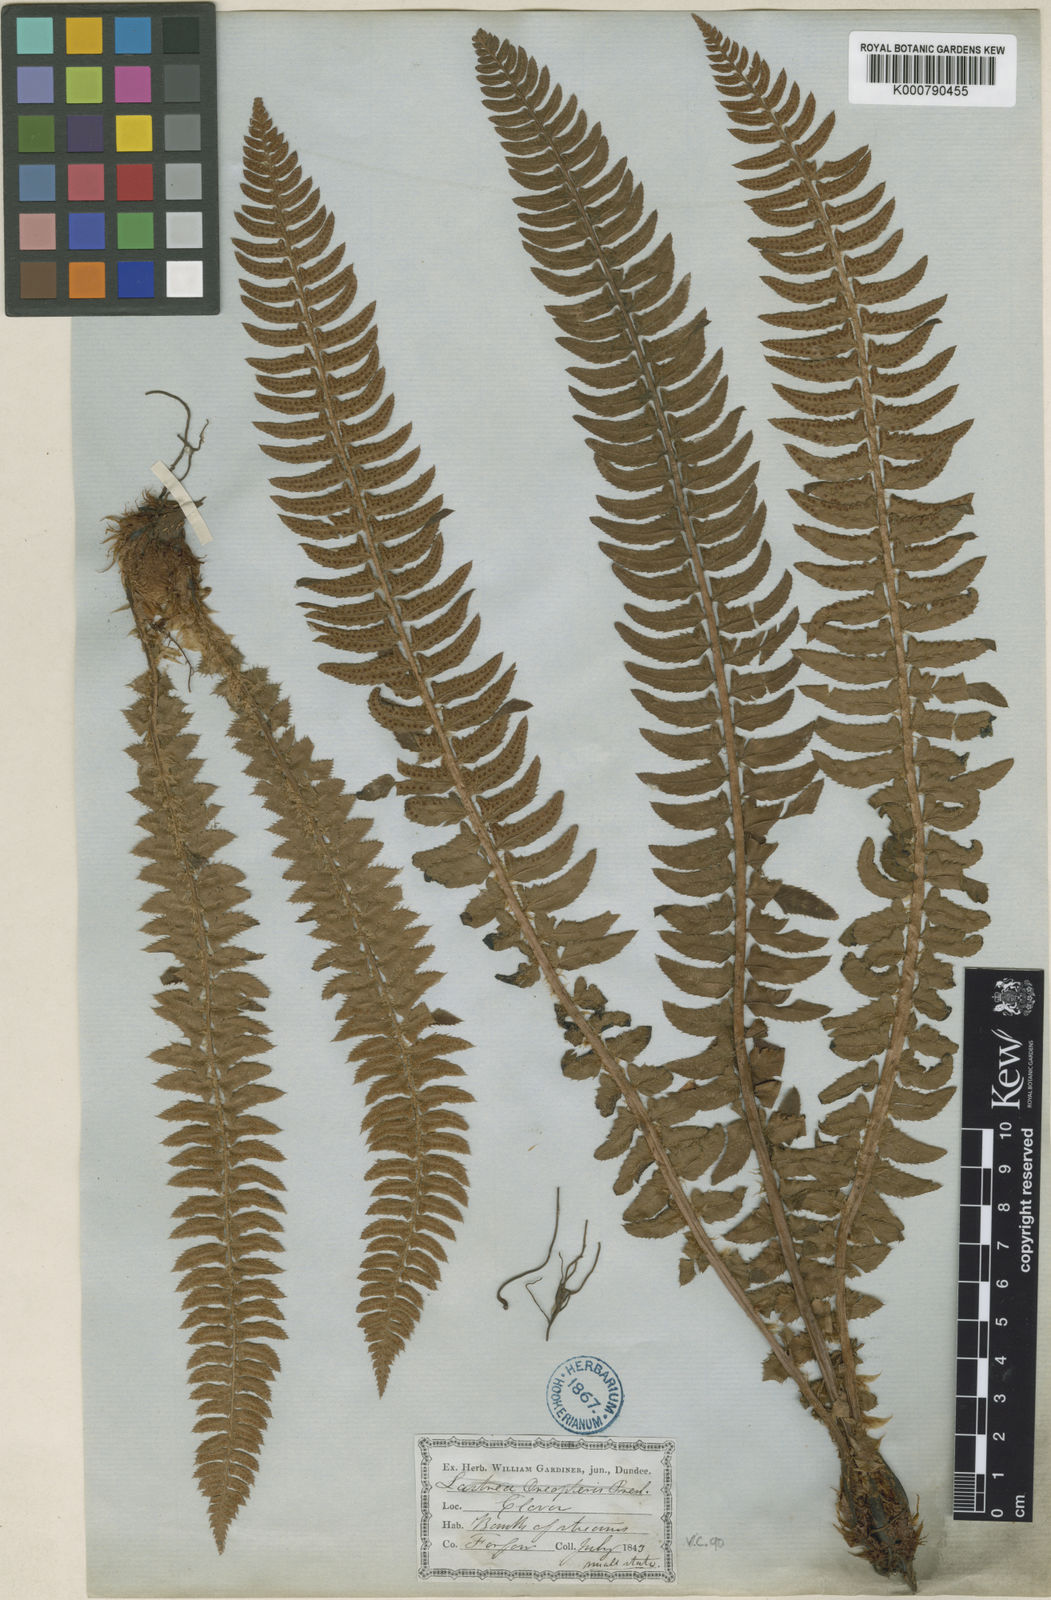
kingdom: Plantae
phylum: Tracheophyta
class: Polypodiopsida
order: Polypodiales
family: Dryopteridaceae
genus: Polystichum
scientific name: Polystichum
